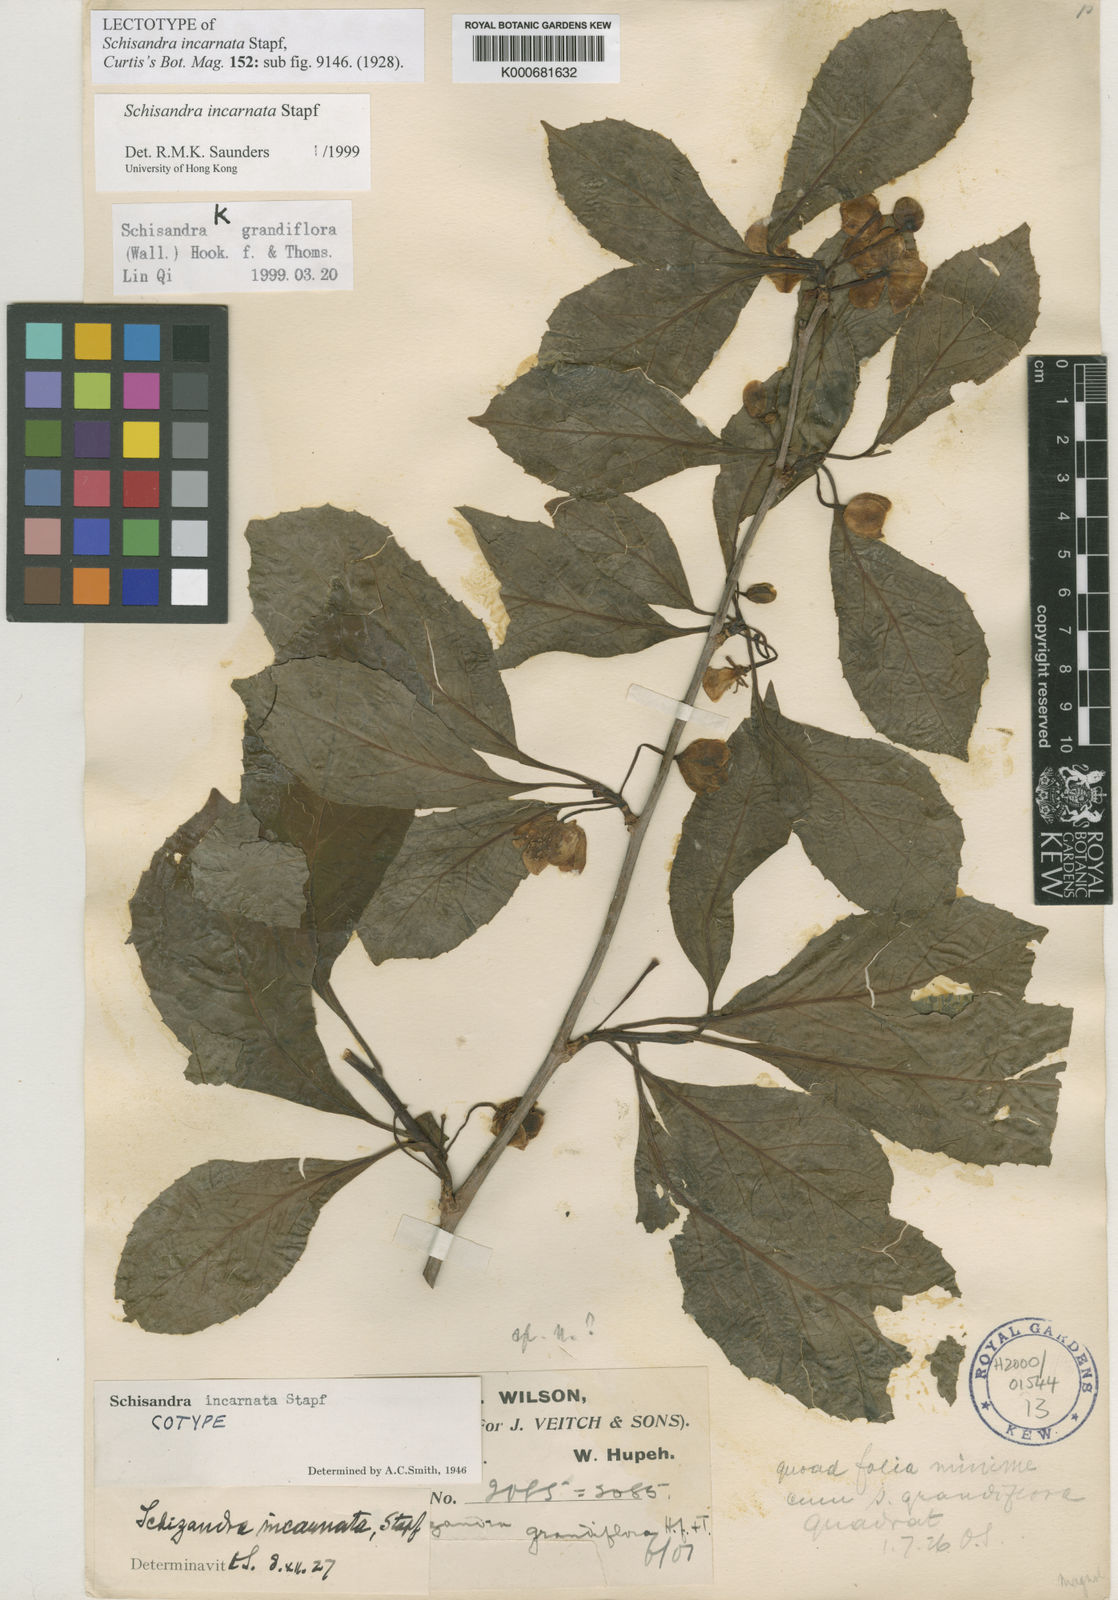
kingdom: Plantae
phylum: Tracheophyta
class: Magnoliopsida
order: Austrobaileyales
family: Schisandraceae
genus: Schisandra
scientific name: Schisandra incarnata
